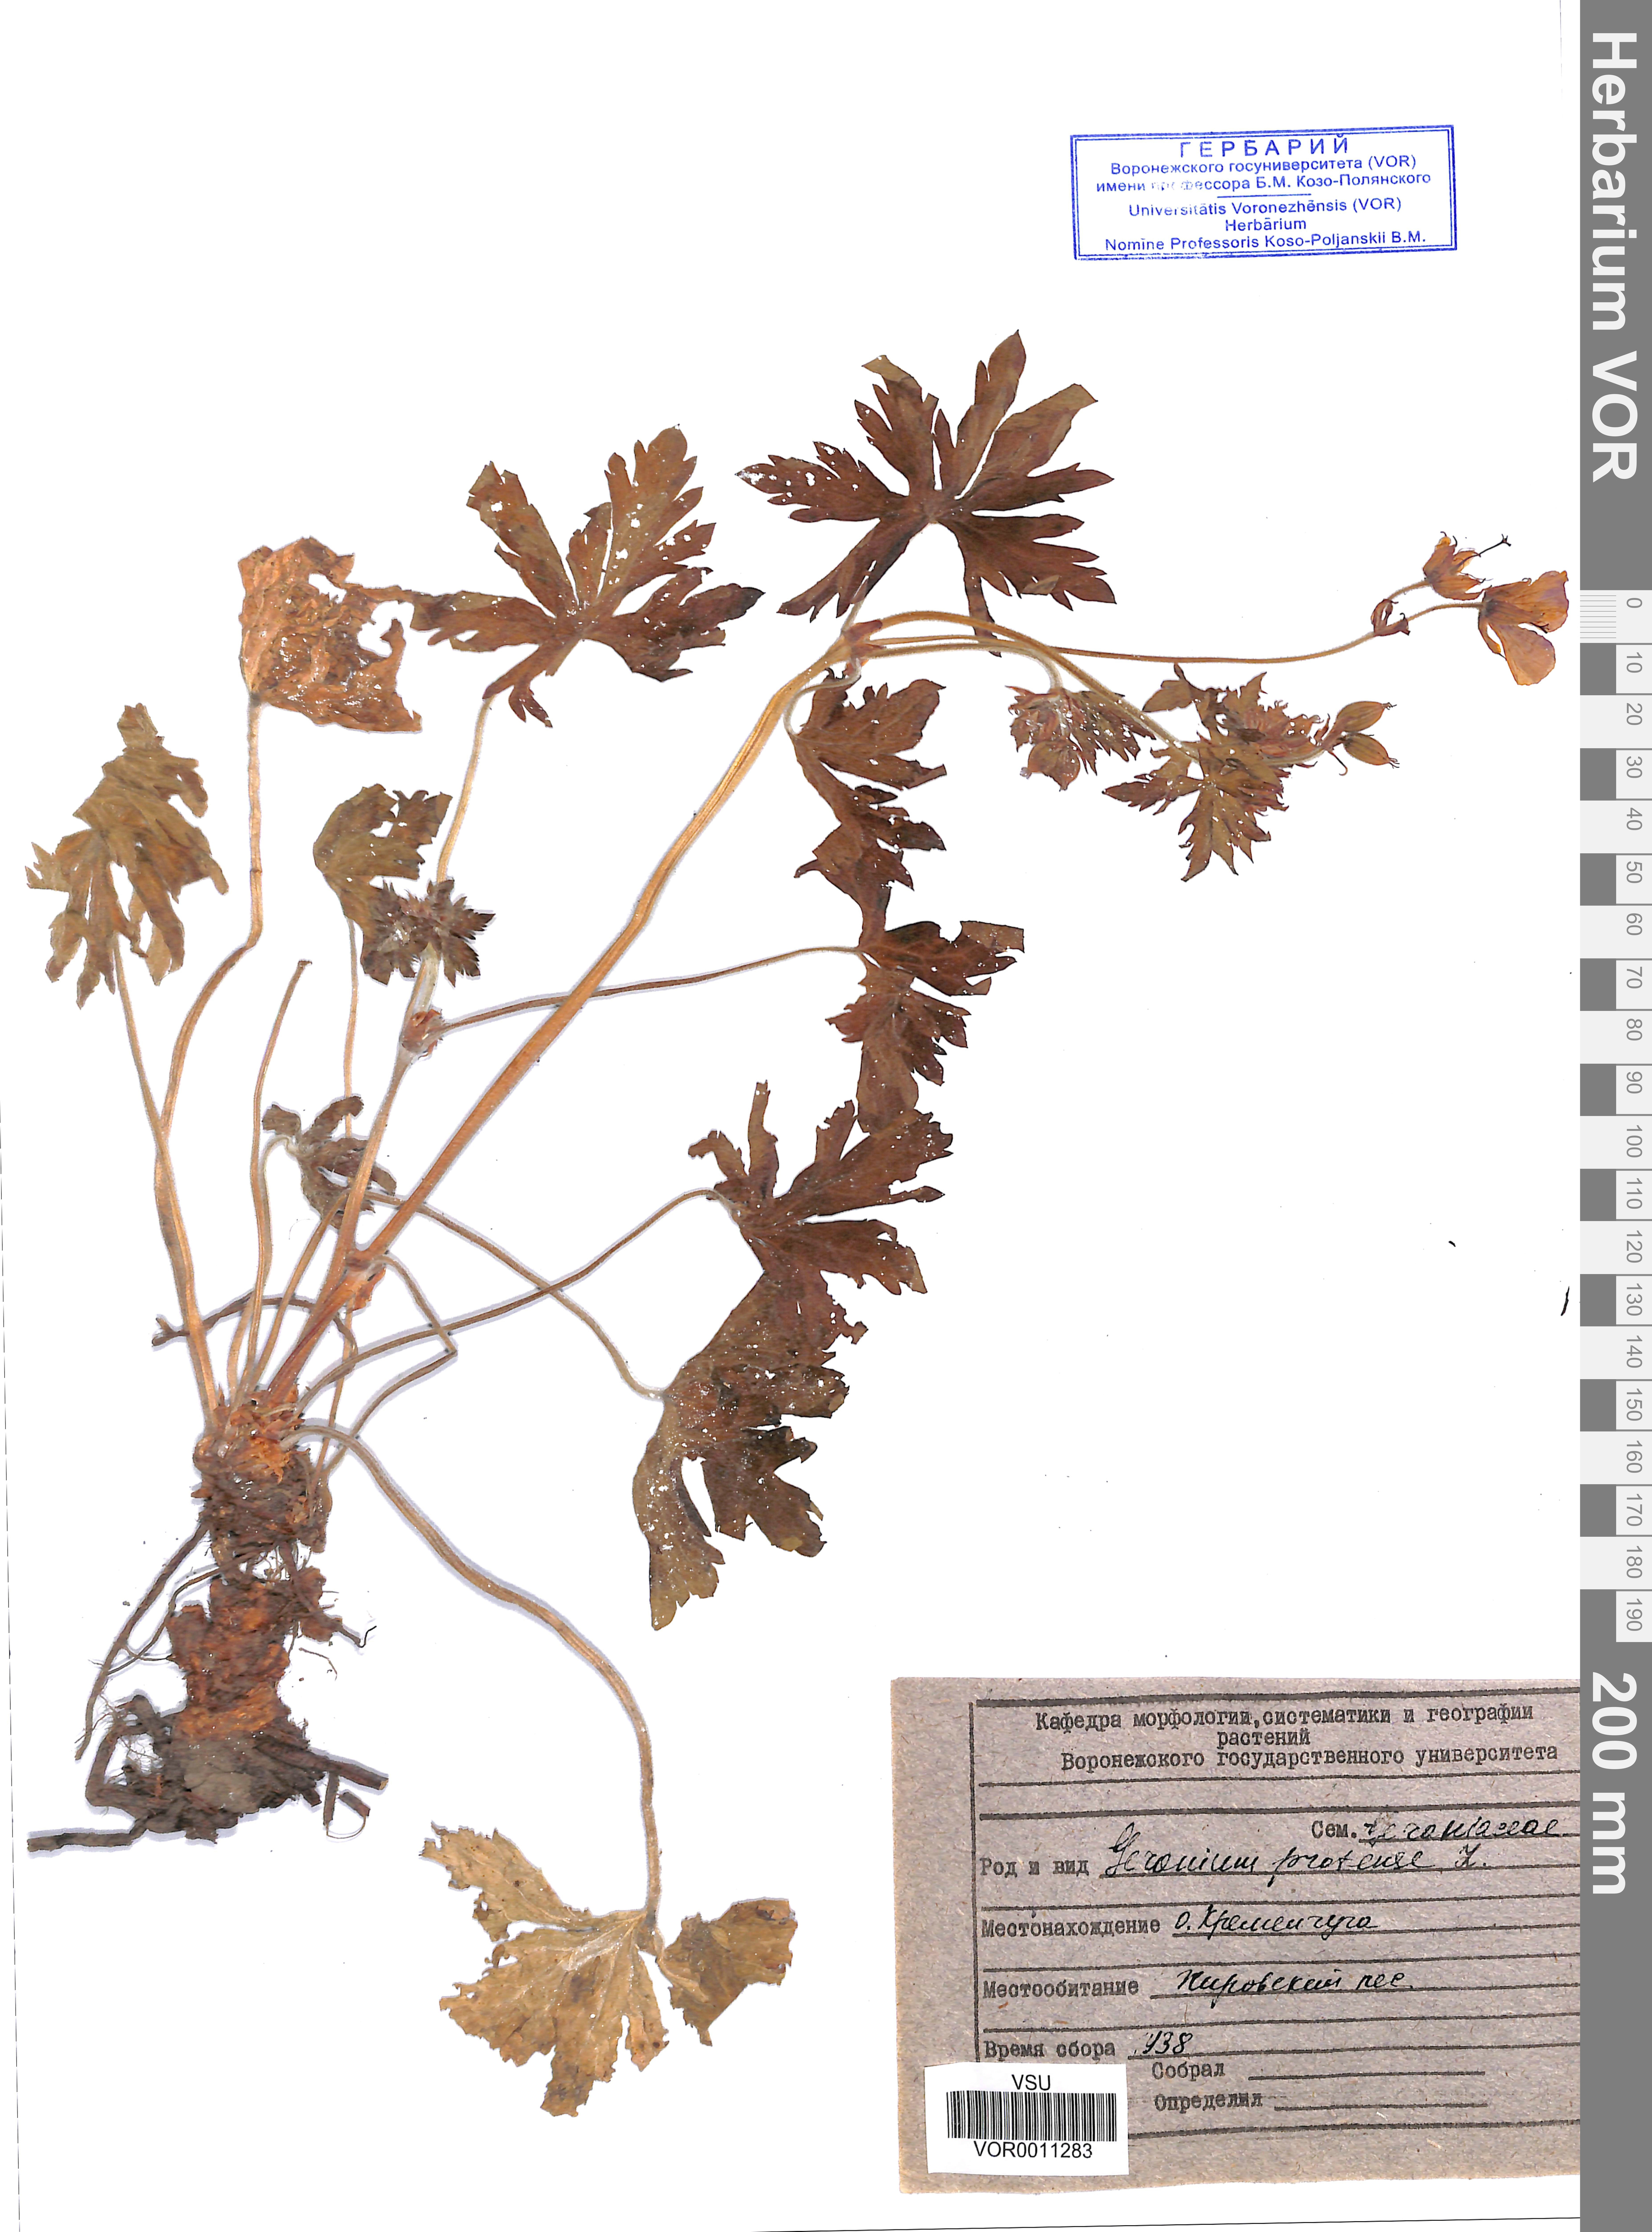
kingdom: Plantae
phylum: Tracheophyta
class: Magnoliopsida
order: Geraniales
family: Geraniaceae
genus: Geranium
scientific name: Geranium pratense
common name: Meadow crane's-bill
